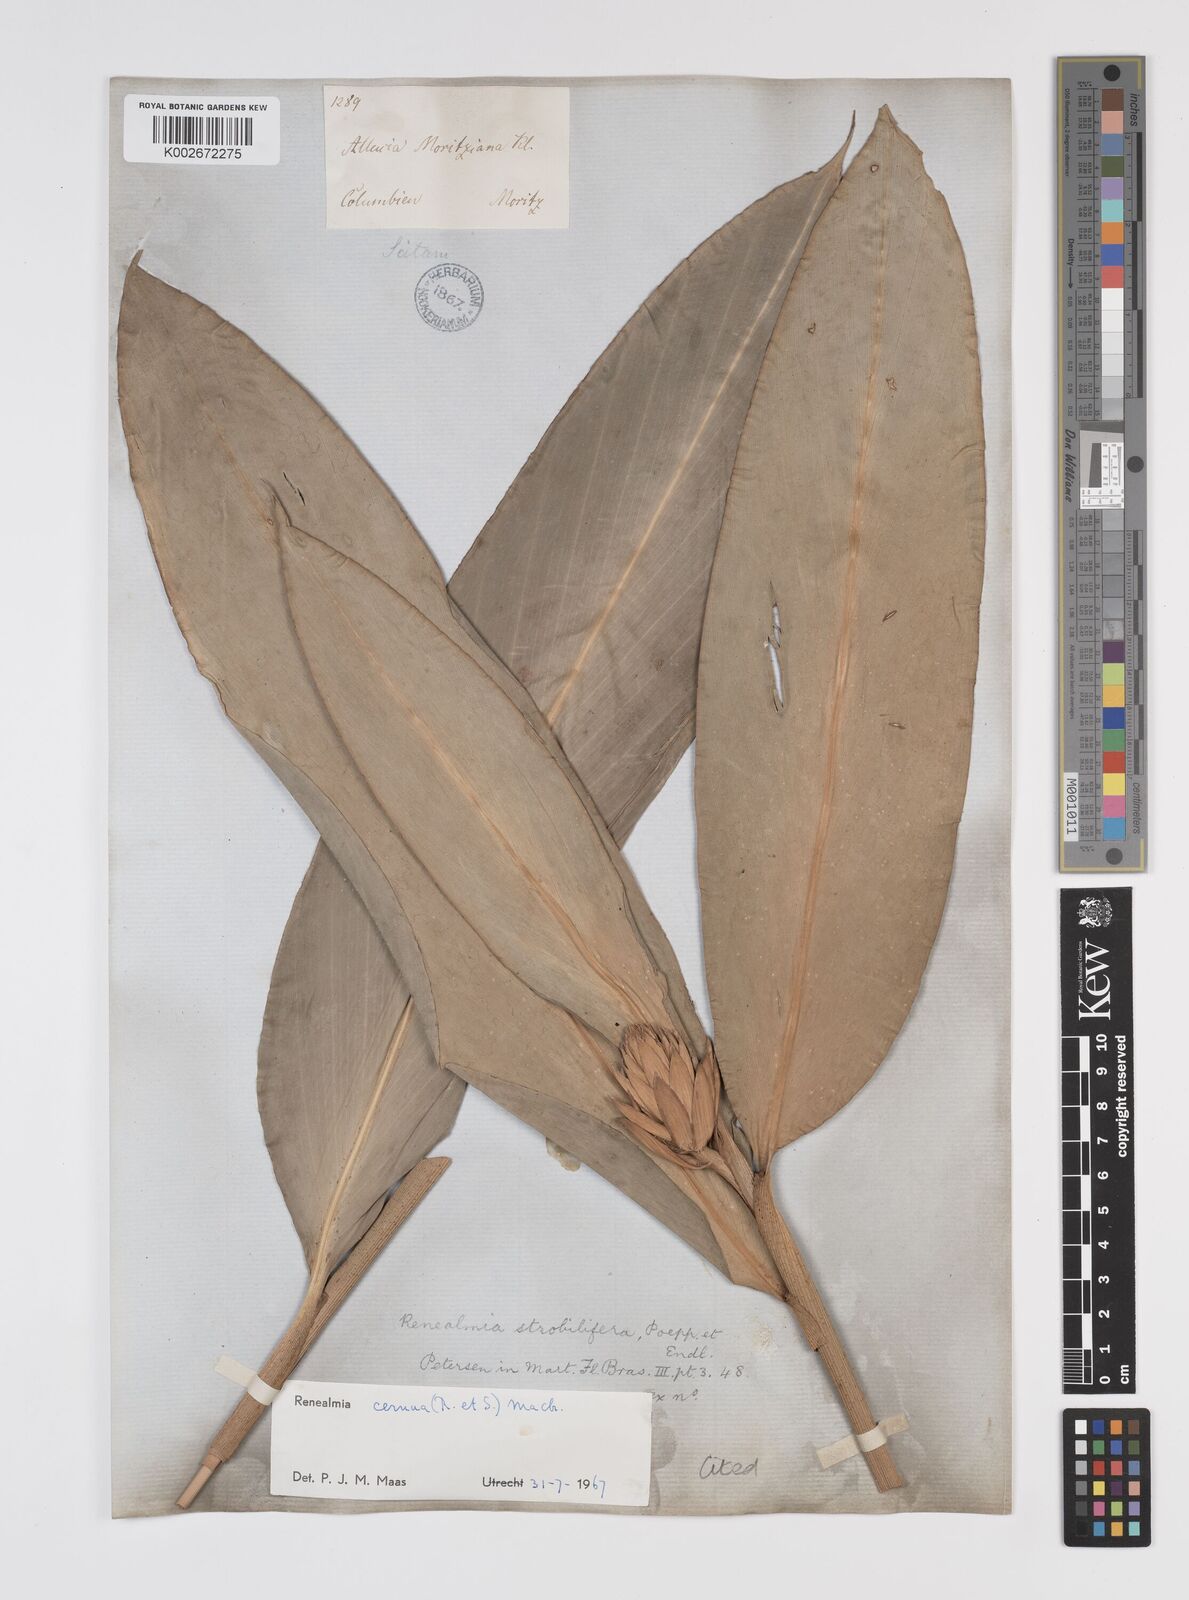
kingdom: Plantae
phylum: Tracheophyta
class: Liliopsida
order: Zingiberales
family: Zingiberaceae
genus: Renealmia
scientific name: Renealmia cernua
